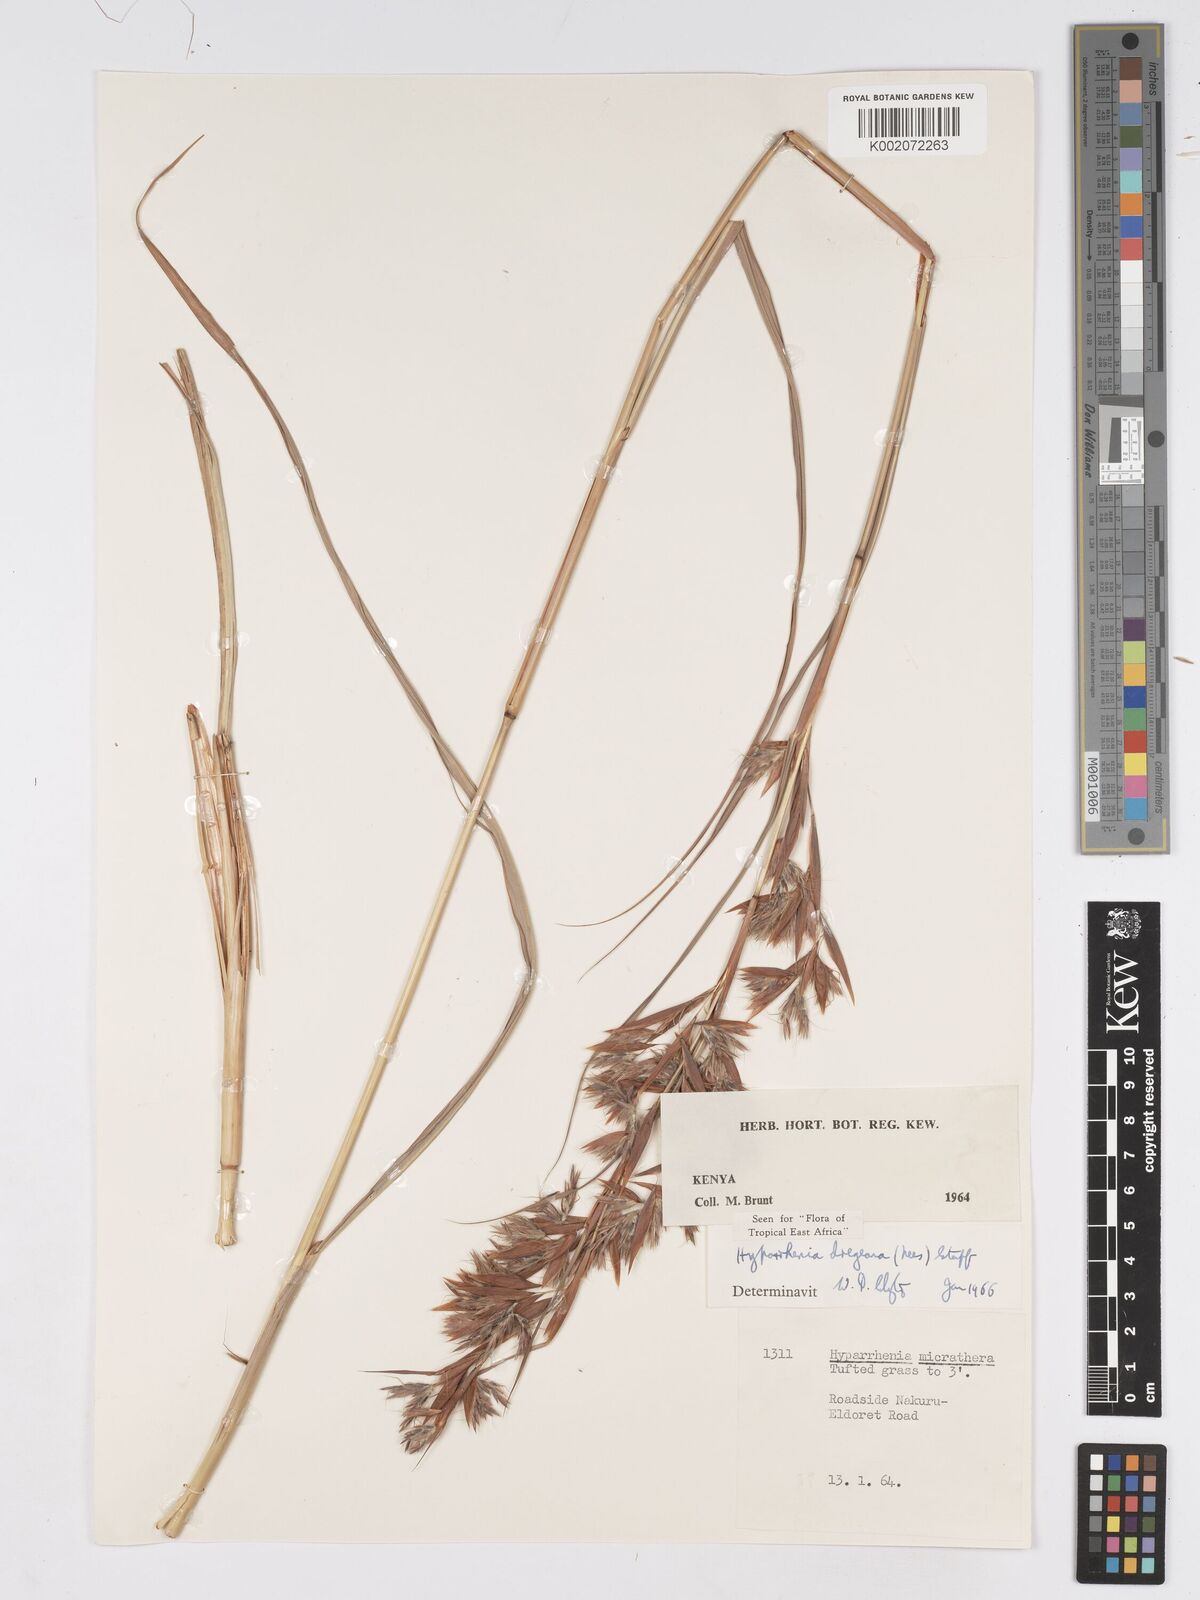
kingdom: Plantae
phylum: Tracheophyta
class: Liliopsida
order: Poales
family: Poaceae
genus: Hyparrhenia
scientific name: Hyparrhenia dregeana
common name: Silky thatching grass
